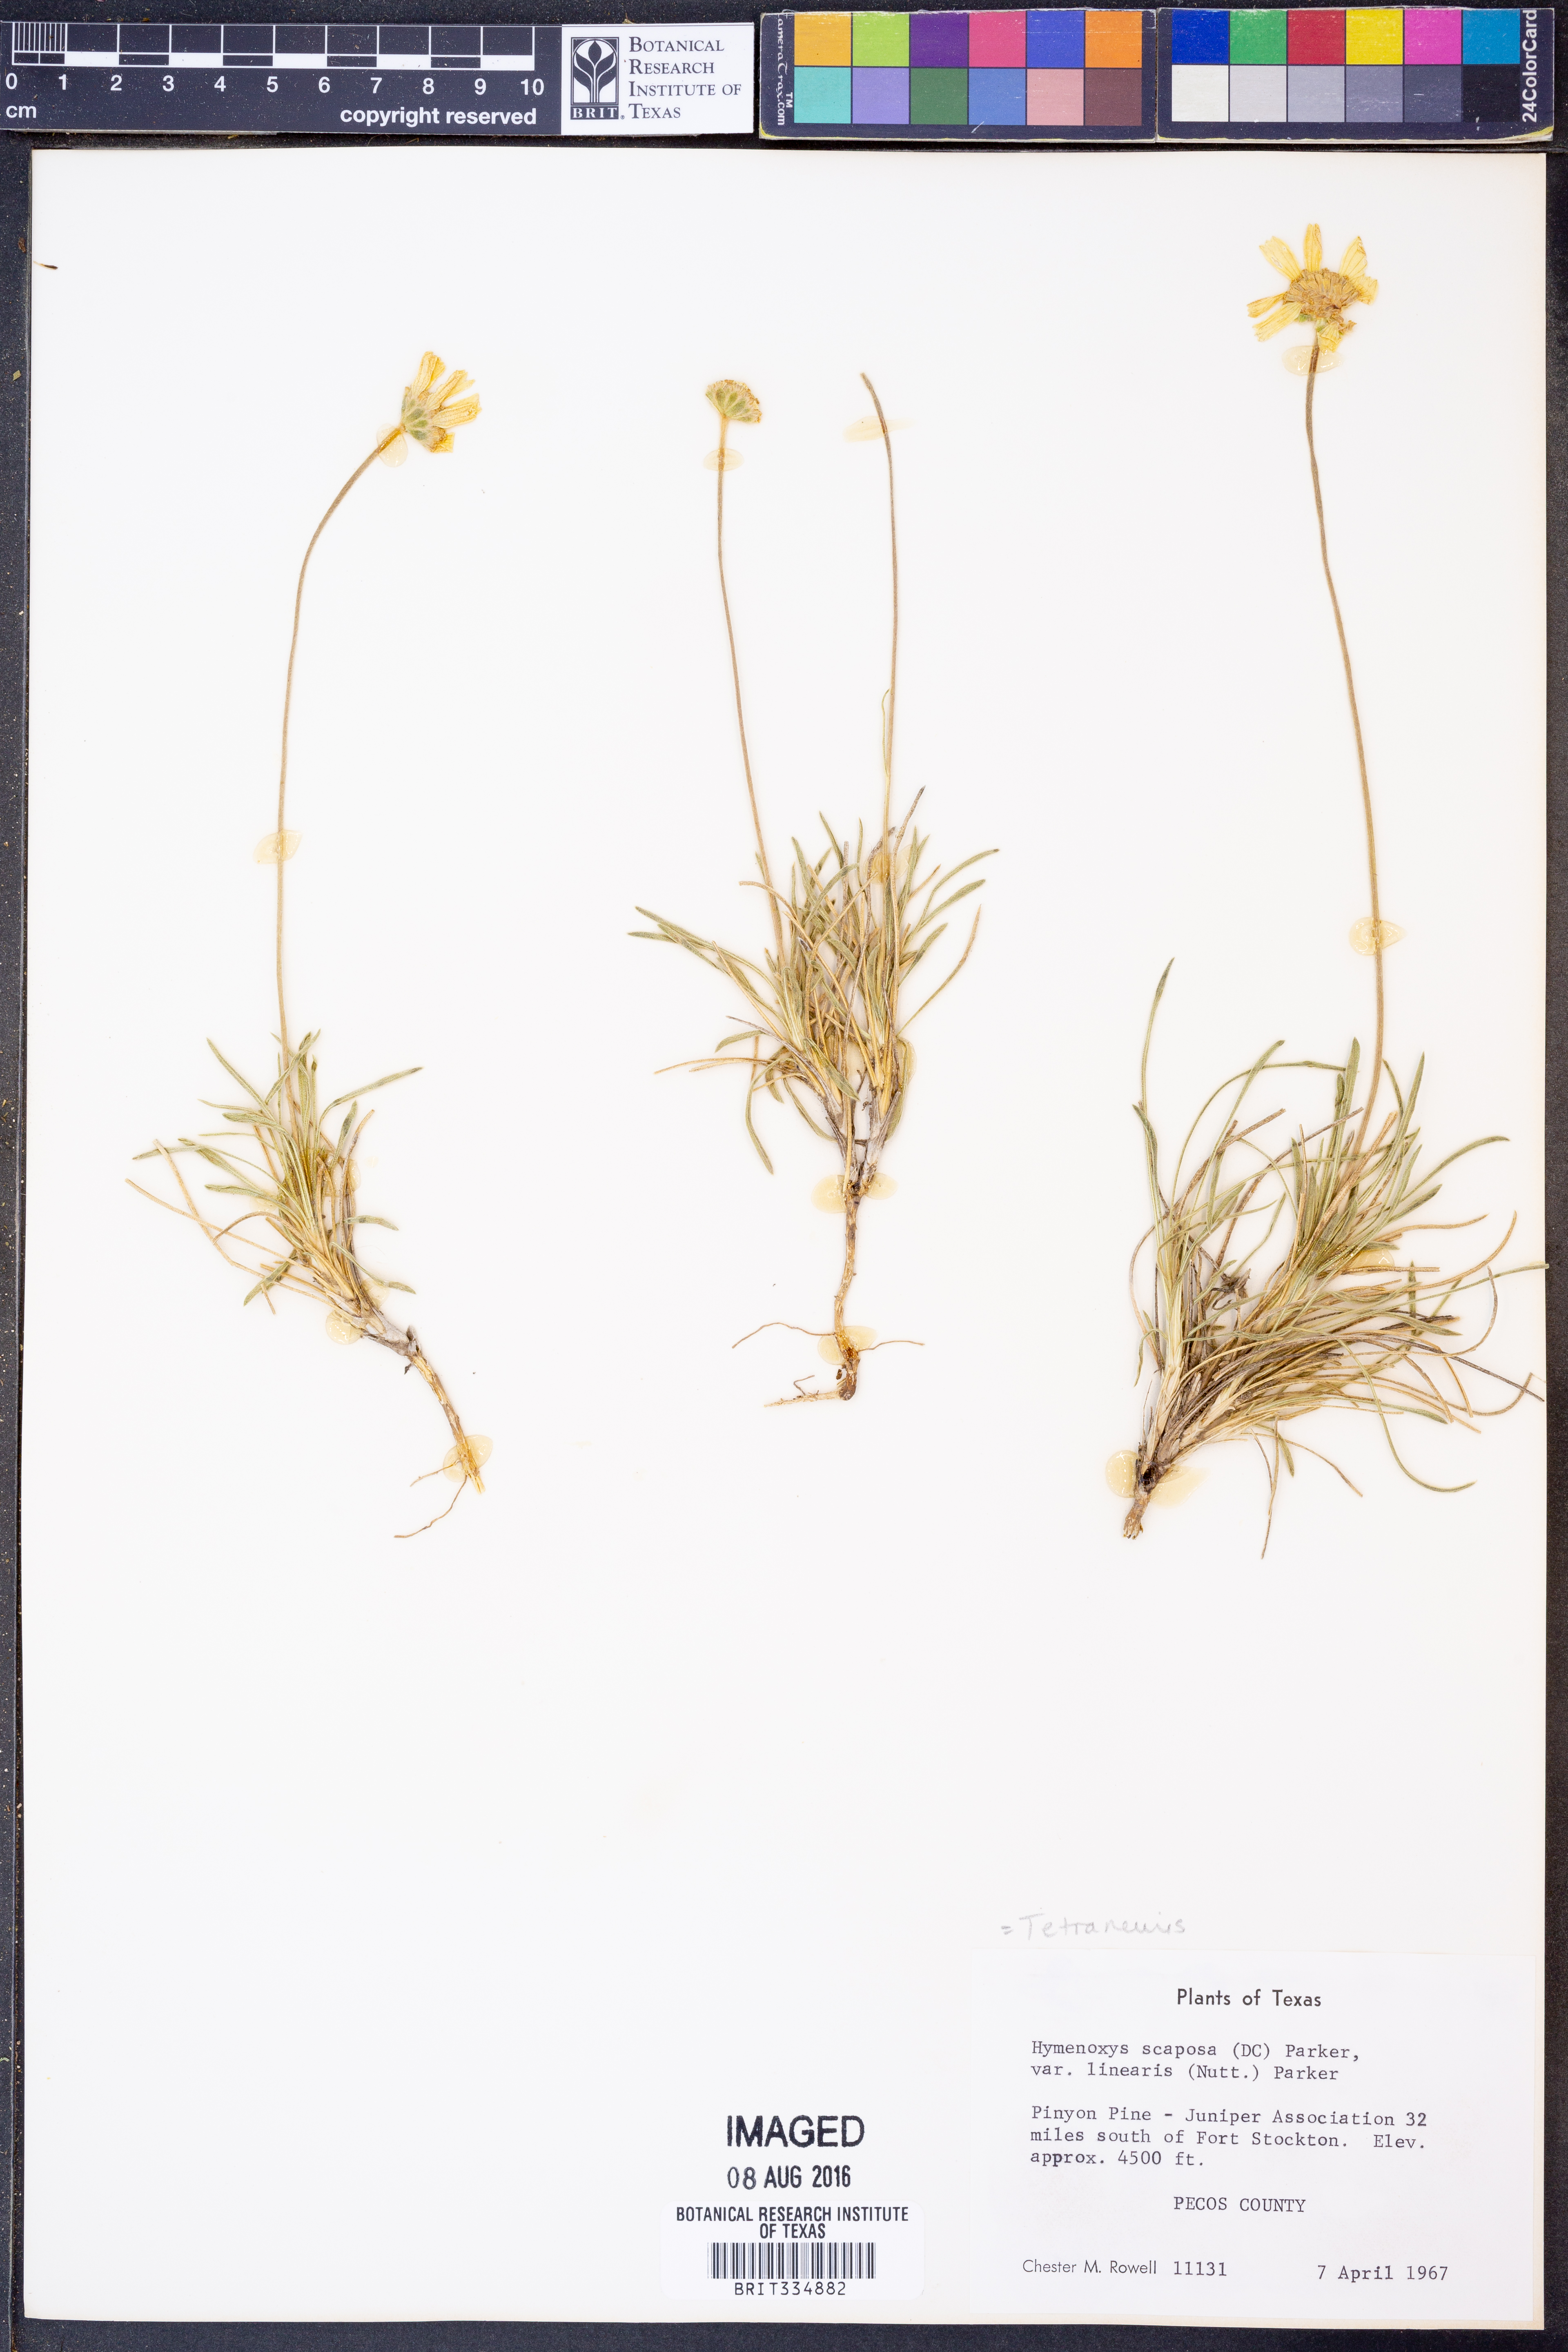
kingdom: Plantae
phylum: Tracheophyta
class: Magnoliopsida
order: Asterales
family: Asteraceae
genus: Tetraneuris
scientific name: Tetraneuris scaposa
